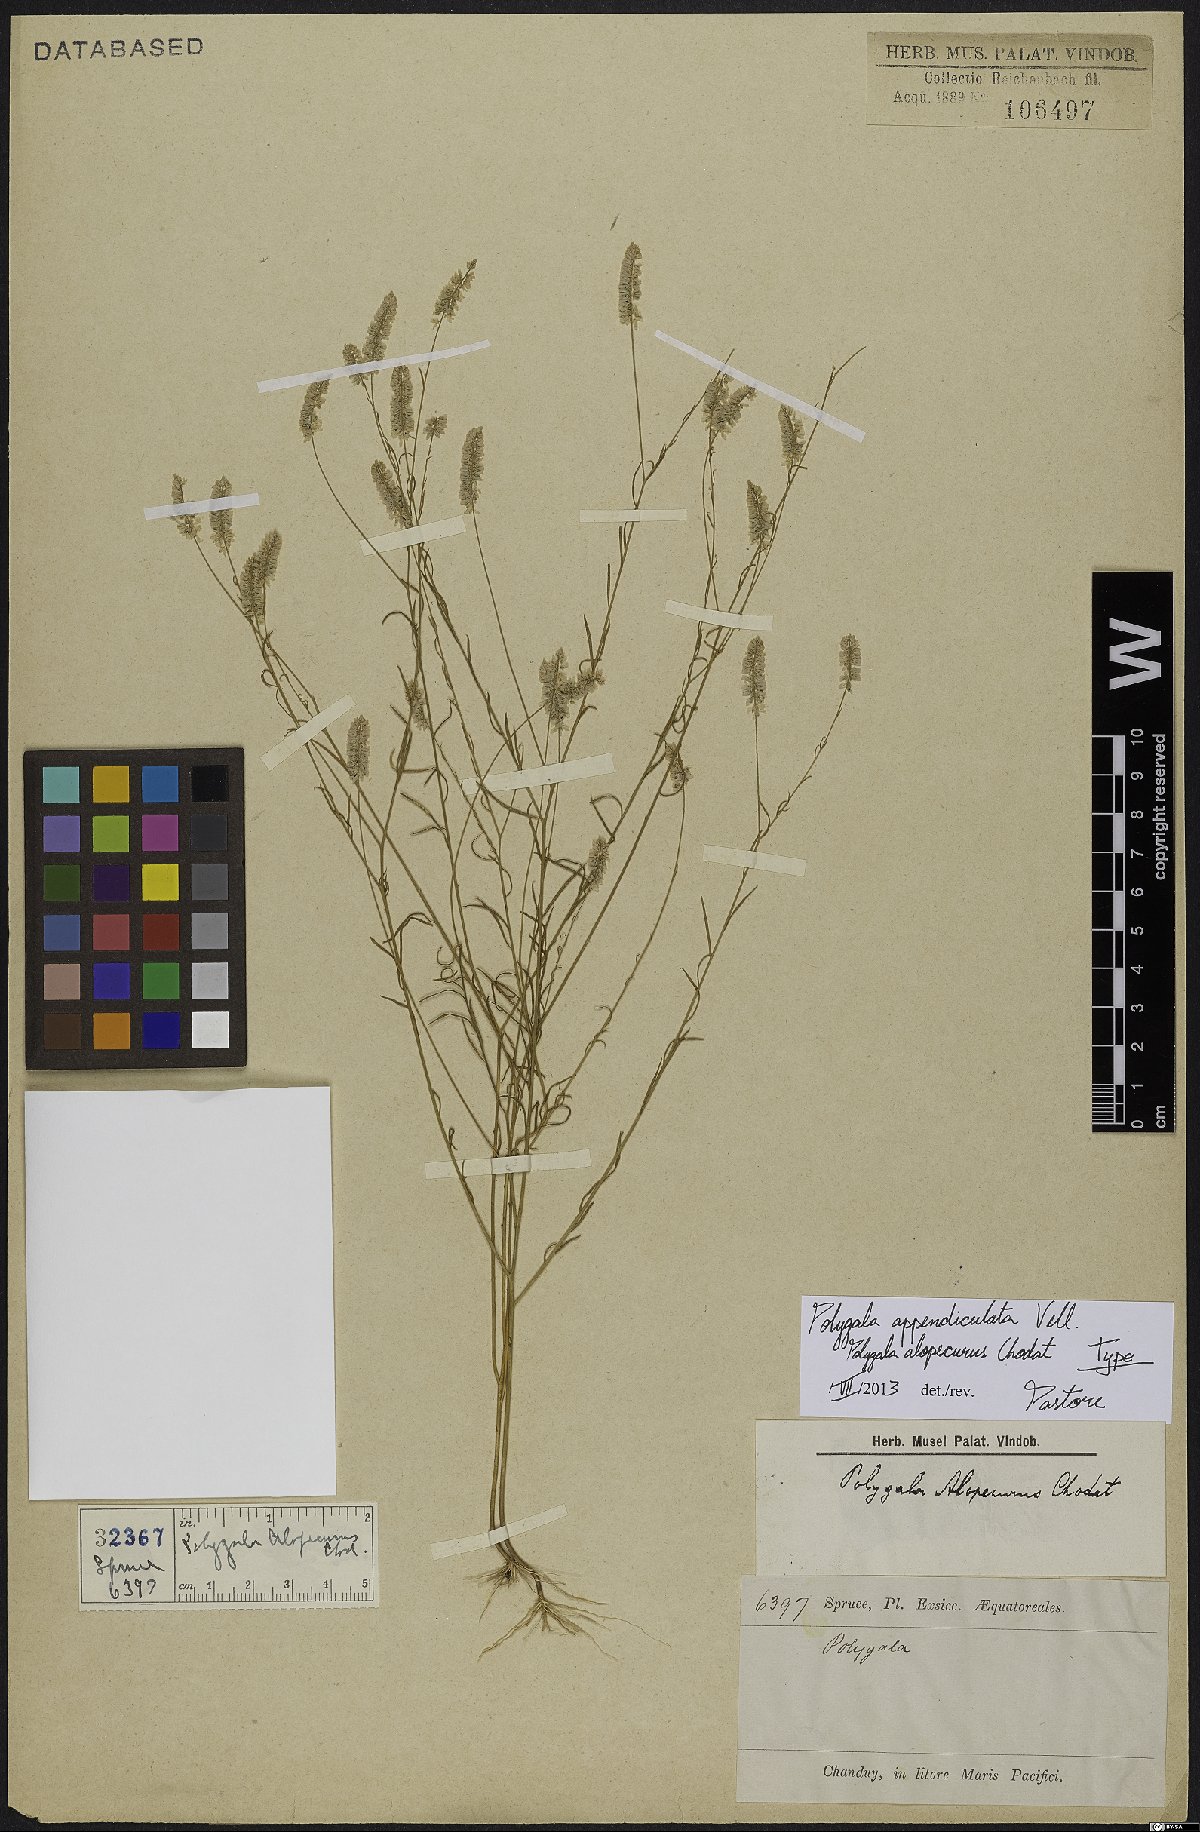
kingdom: Plantae
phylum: Tracheophyta
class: Magnoliopsida
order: Fabales
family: Polygalaceae
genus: Polygala
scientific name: Polygala tenella
